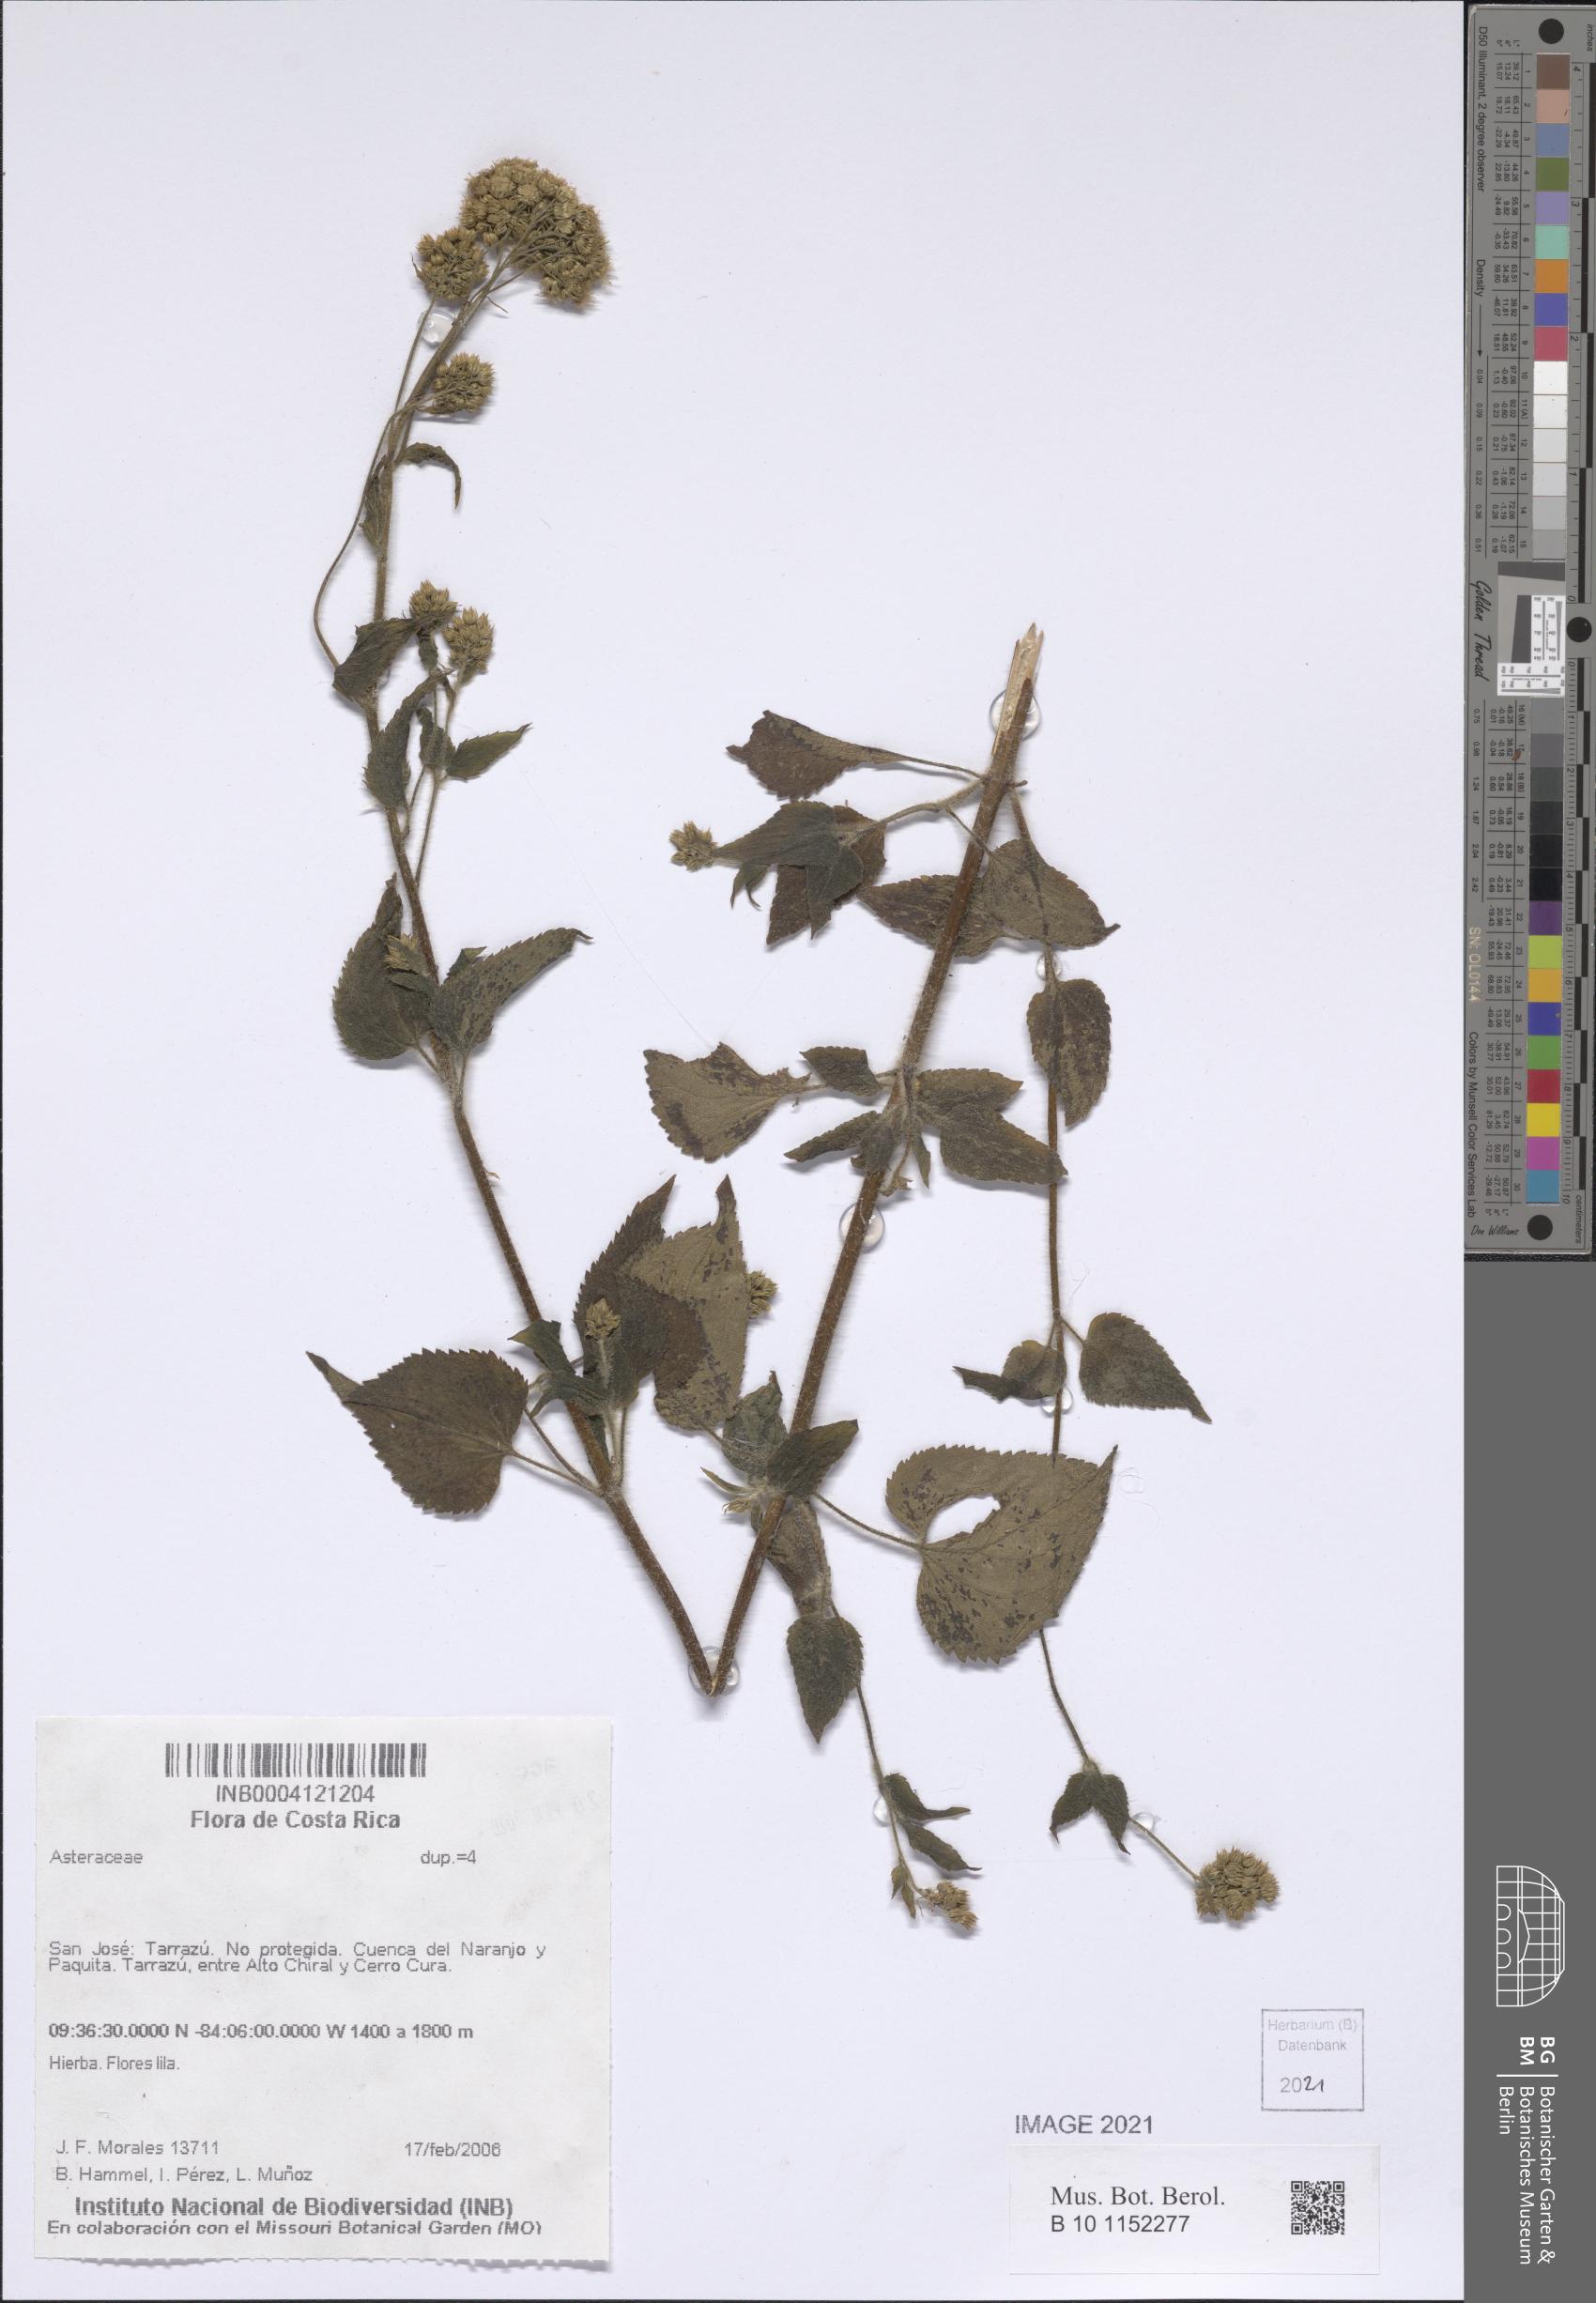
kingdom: Plantae
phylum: Tracheophyta
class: Magnoliopsida
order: Asterales
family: Asteraceae
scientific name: Asteraceae
